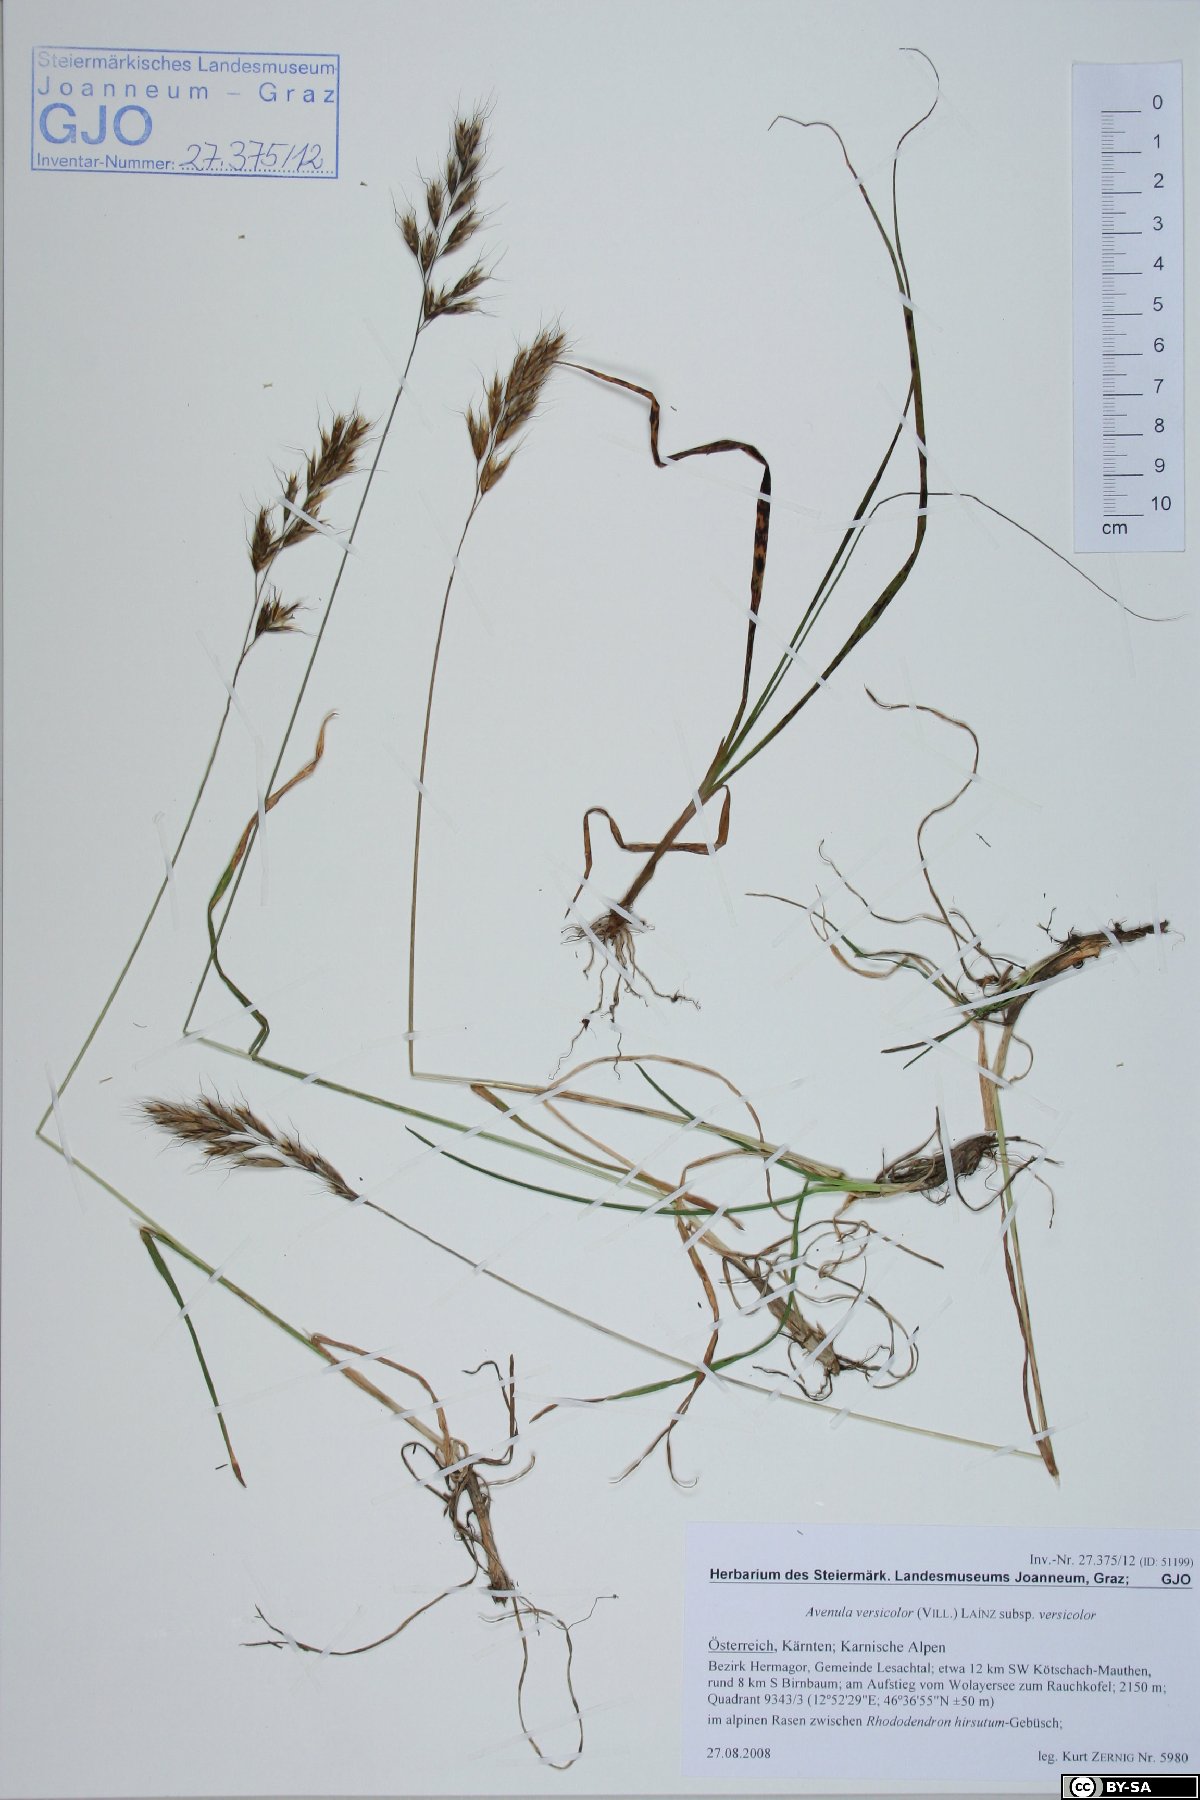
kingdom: Plantae
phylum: Tracheophyta
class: Liliopsida
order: Poales
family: Poaceae
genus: Helictochloa
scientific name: Helictochloa versicolor
